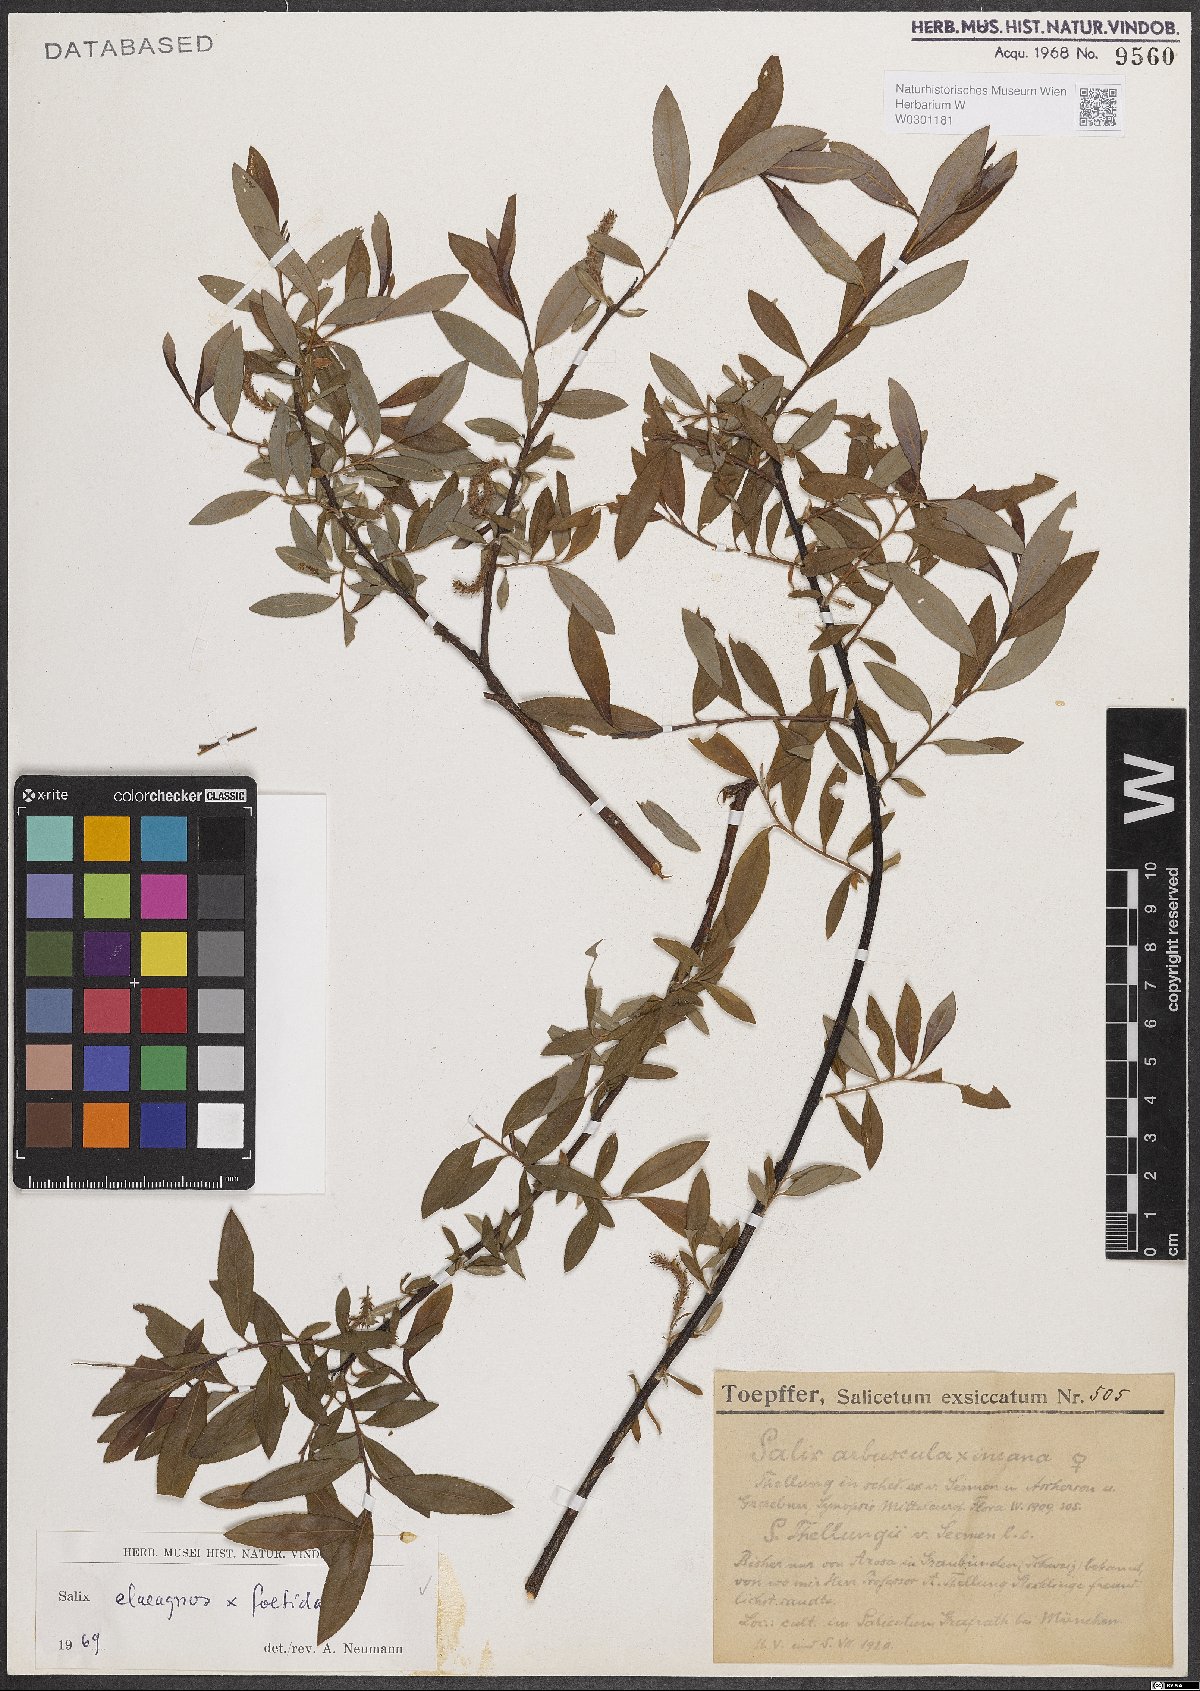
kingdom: Plantae
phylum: Tracheophyta
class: Magnoliopsida
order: Malpighiales
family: Salicaceae
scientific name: Salicaceae
